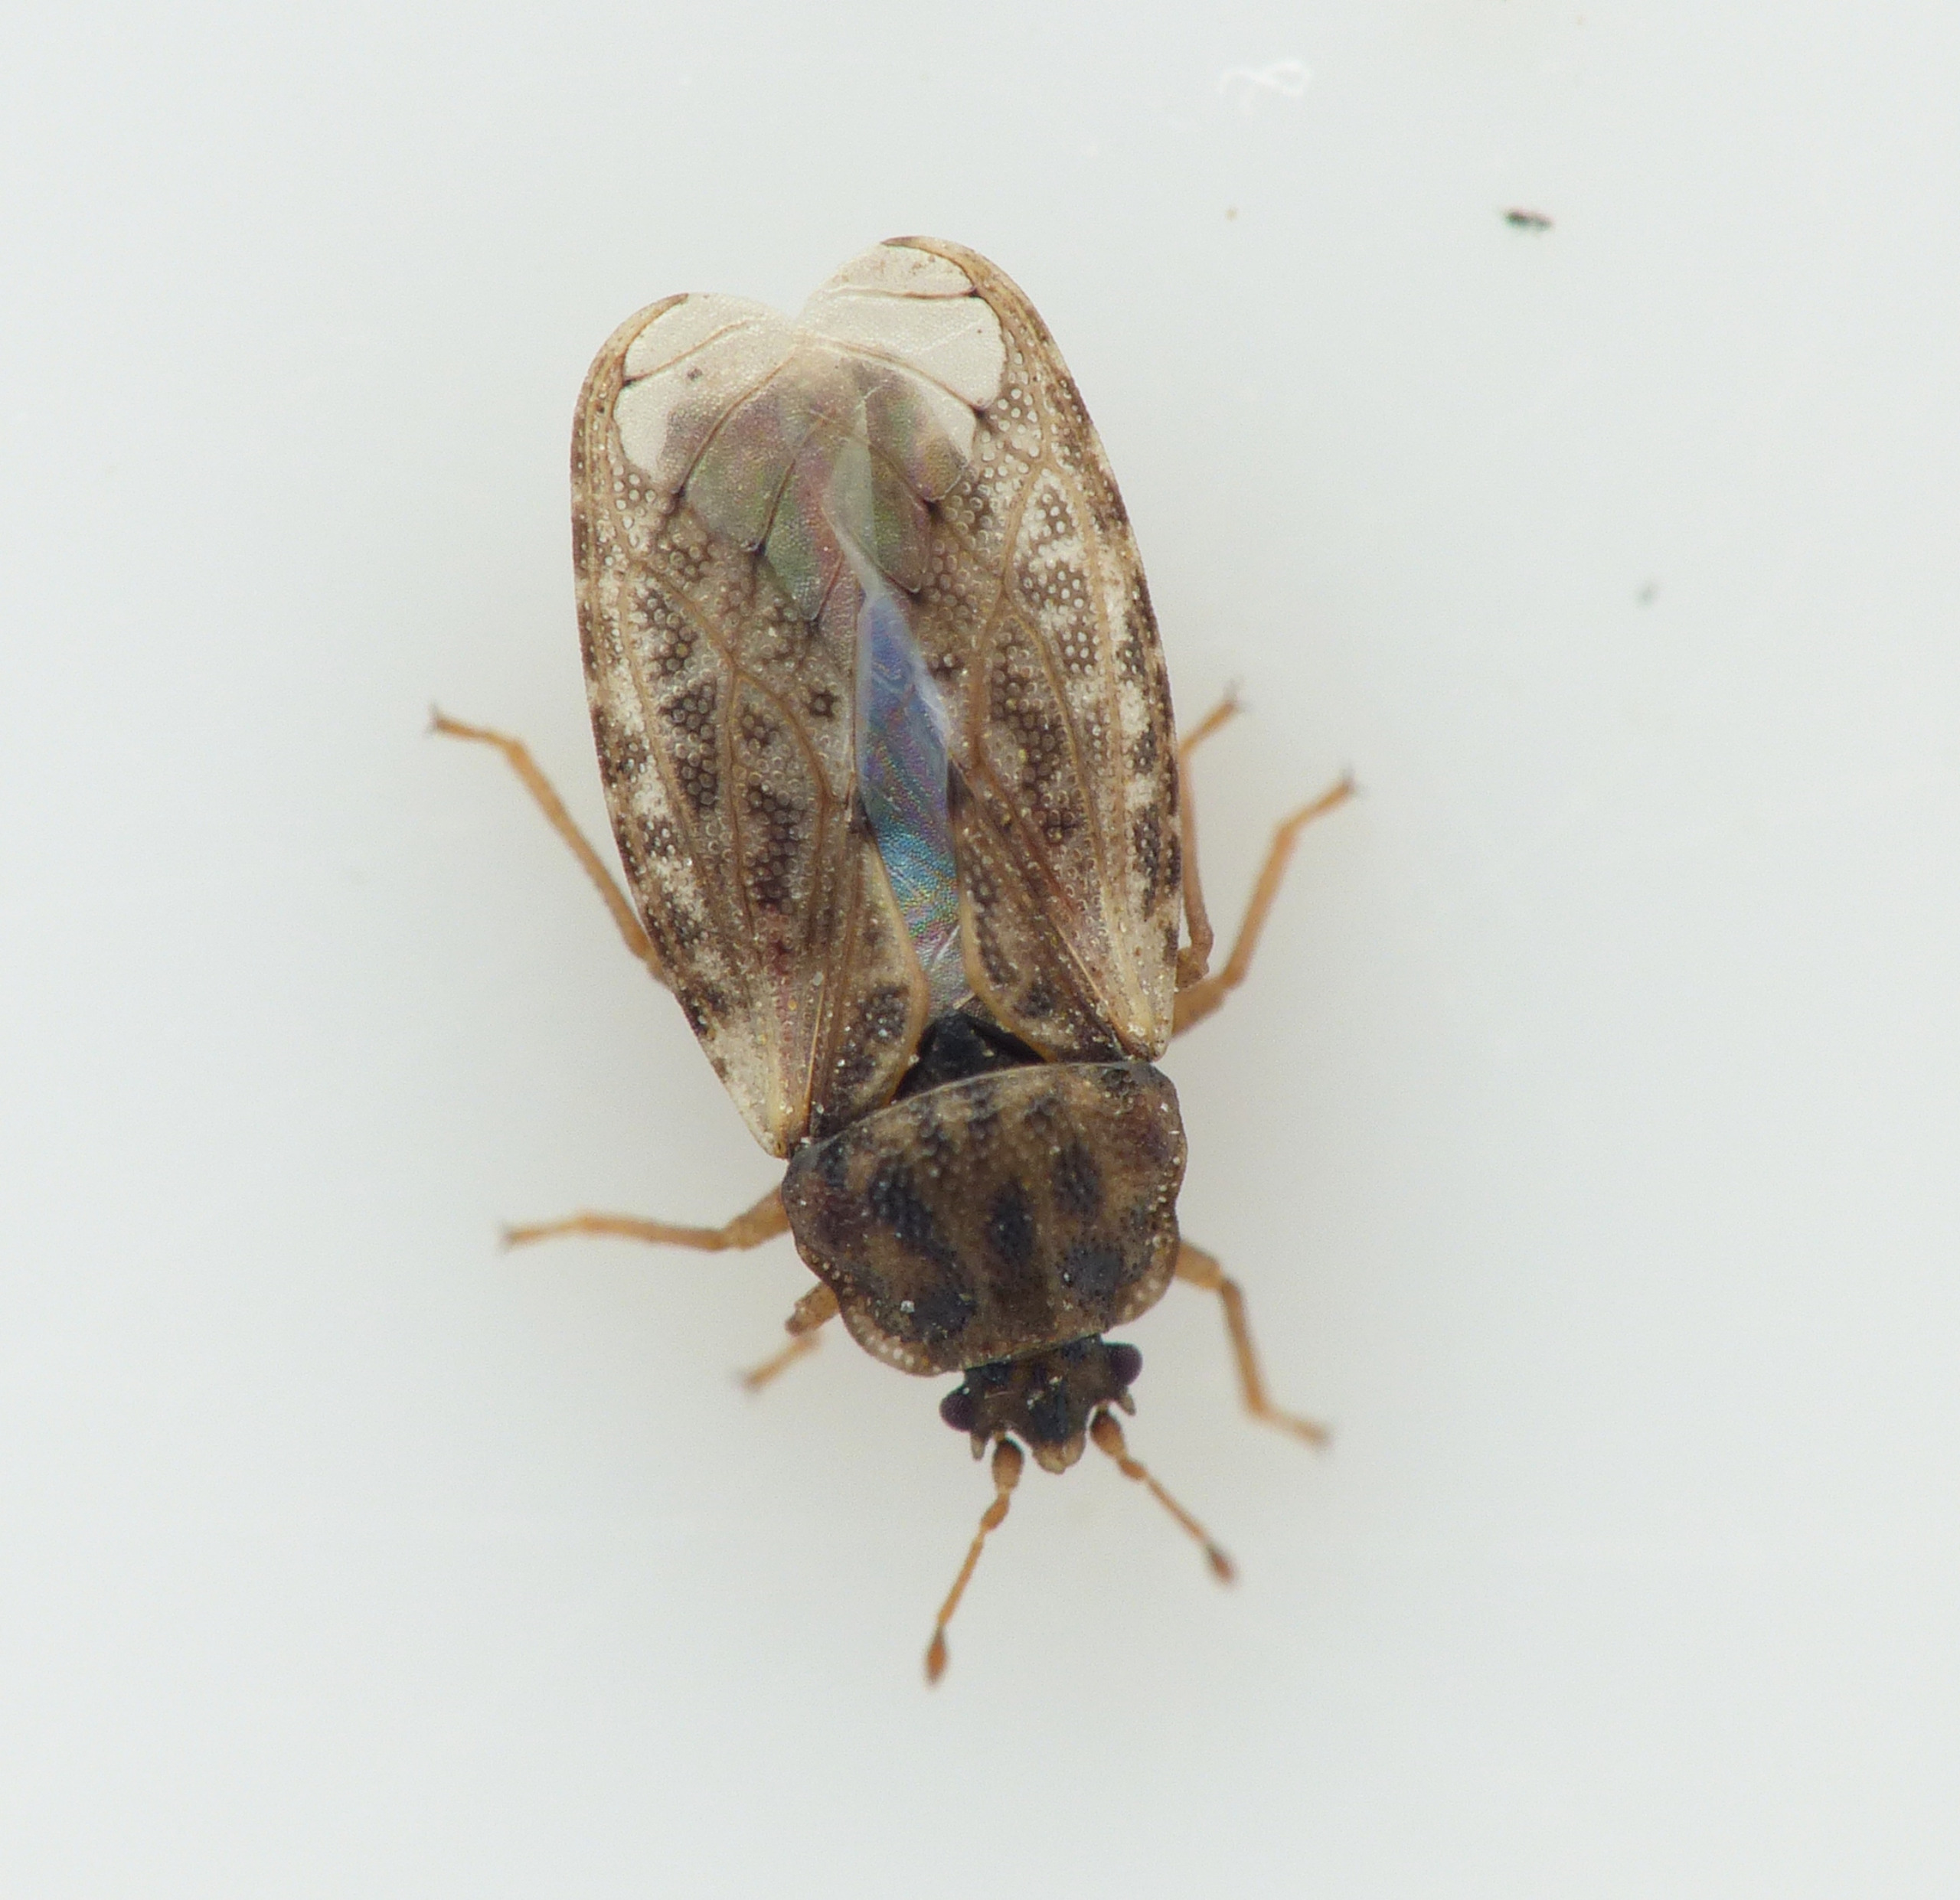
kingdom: Animalia
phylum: Arthropoda
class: Insecta
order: Hemiptera
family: Piesmatidae
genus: Piesma
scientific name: Piesma maculata
